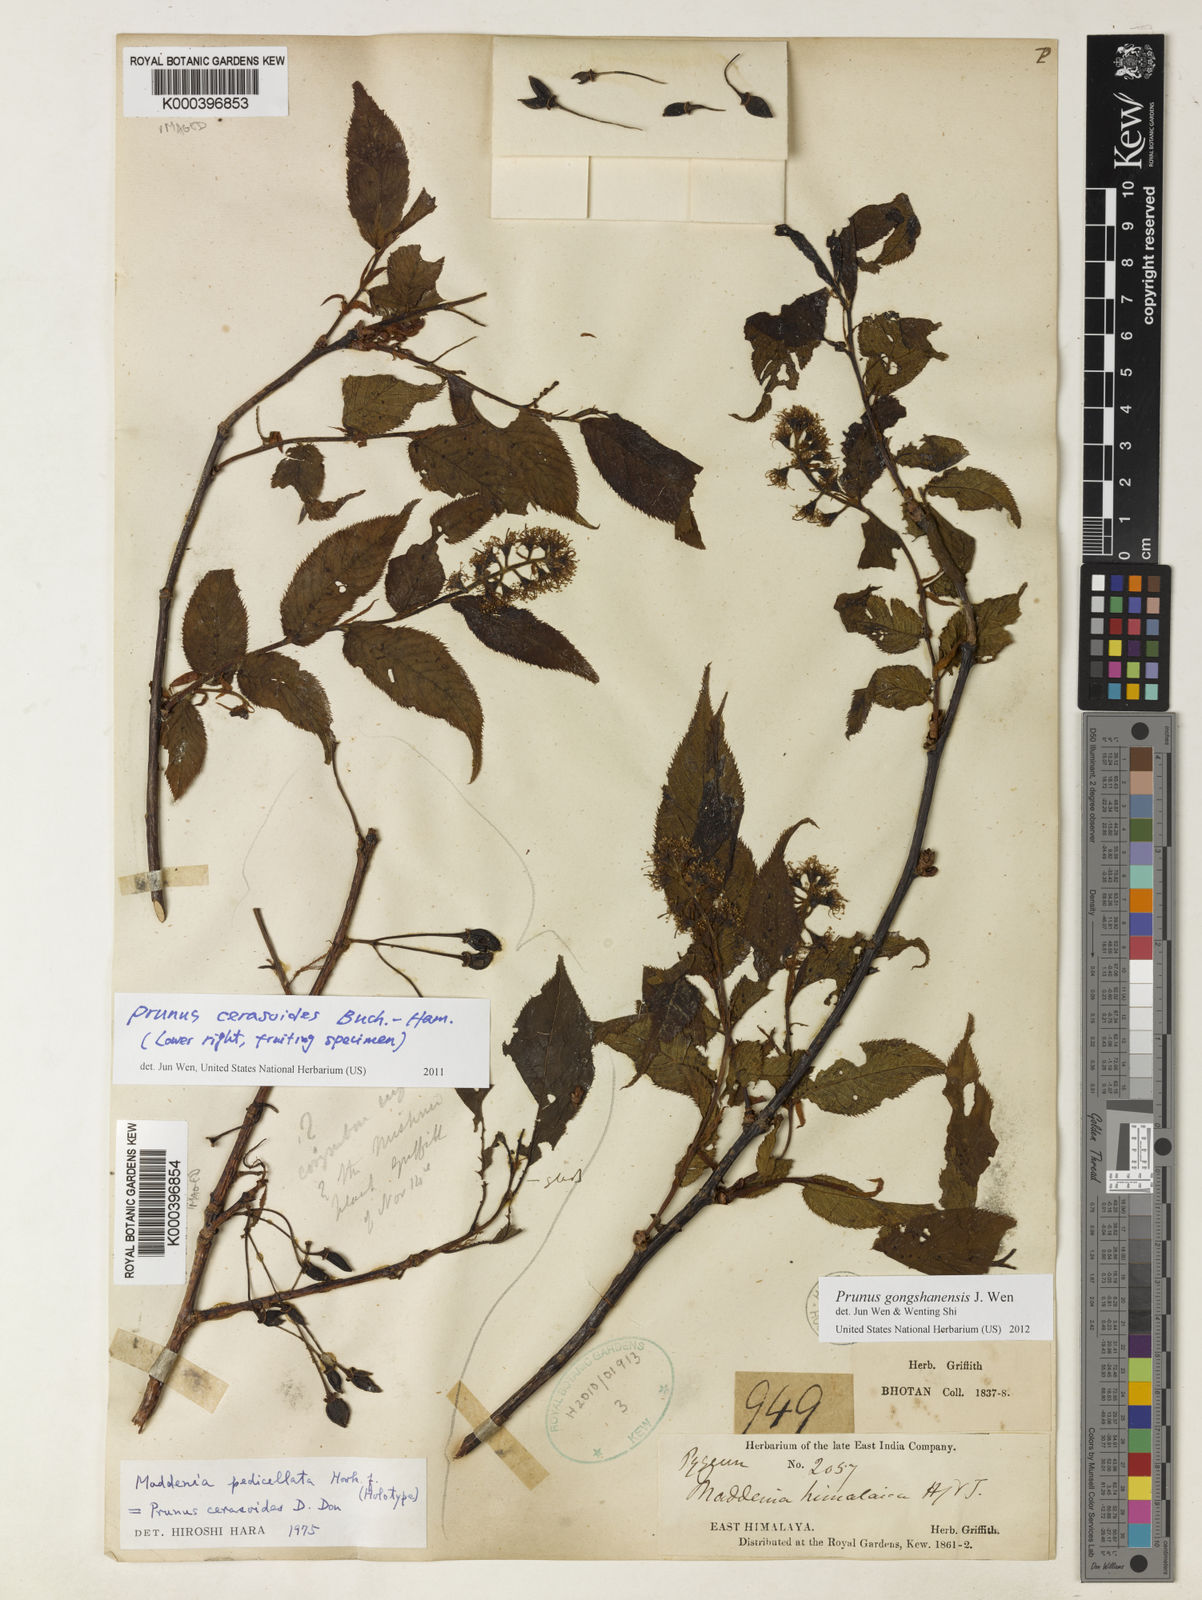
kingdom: Plantae
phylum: Tracheophyta
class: Magnoliopsida
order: Rosales
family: Rosaceae
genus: Prunus
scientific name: Prunus cerasoides
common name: Wild himalayan cherry
